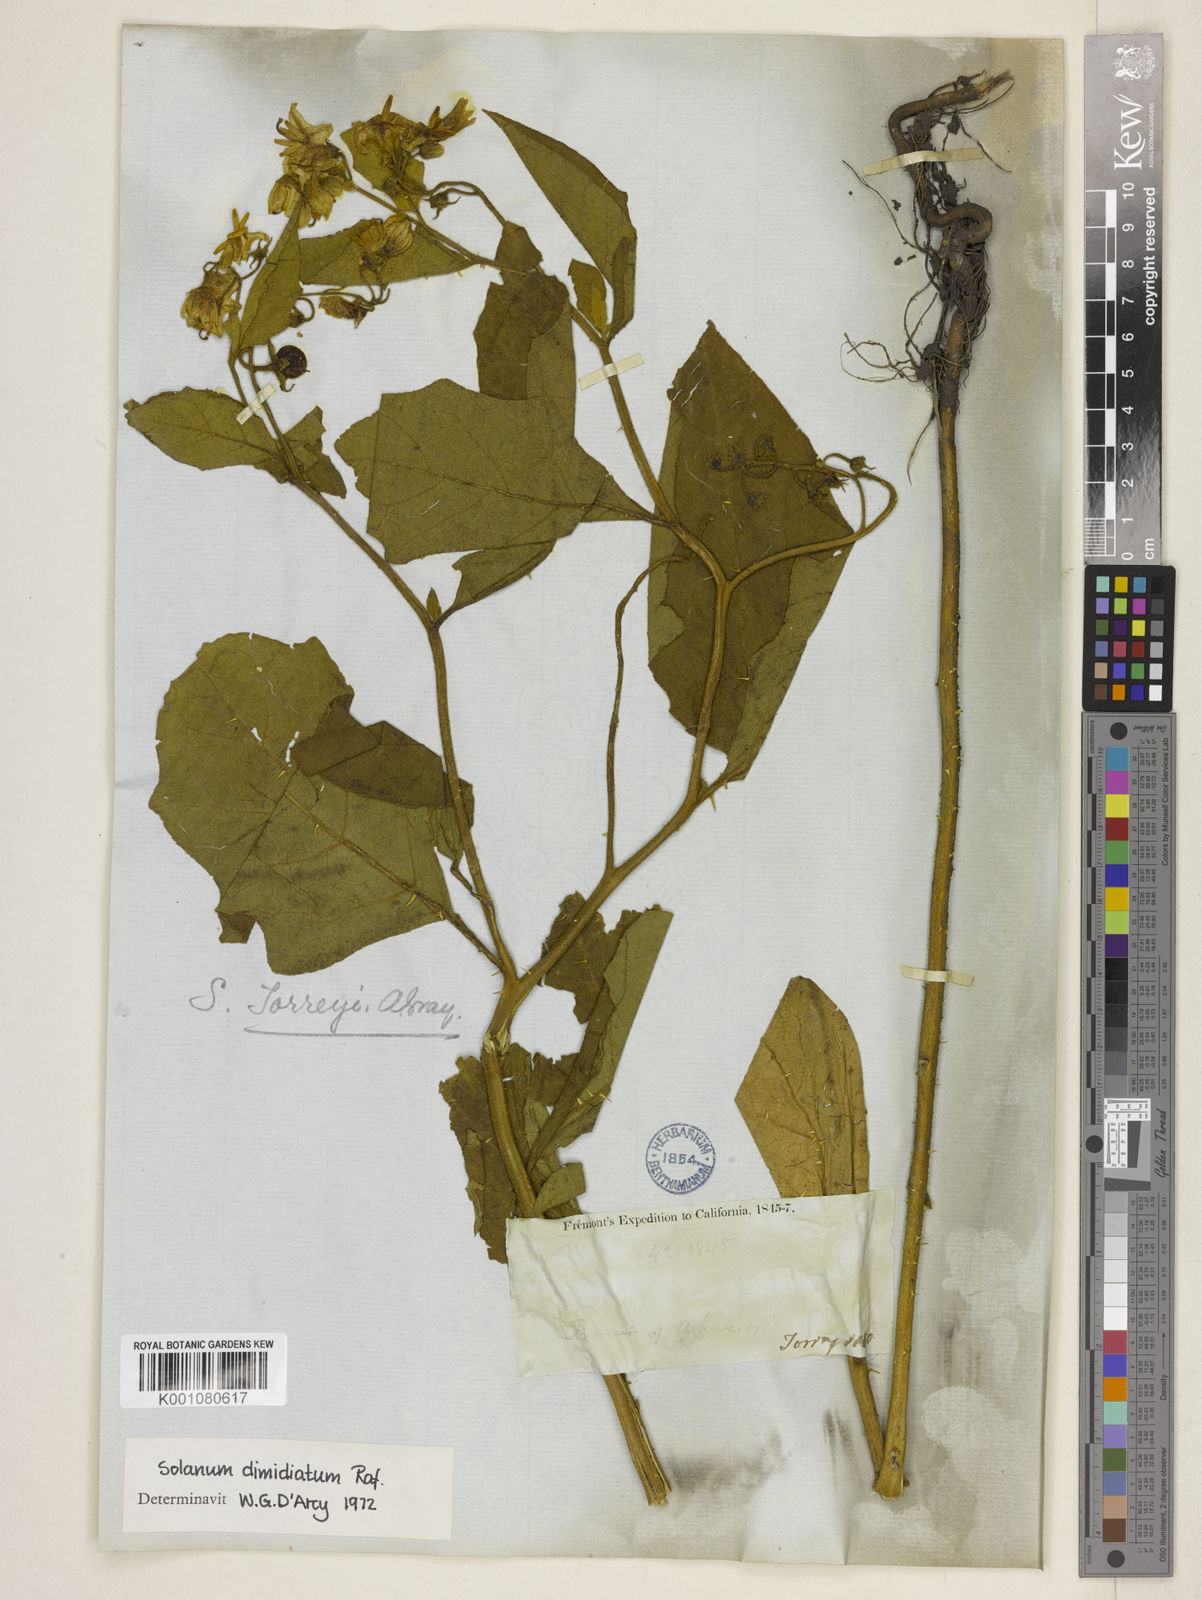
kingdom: Plantae
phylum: Tracheophyta
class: Magnoliopsida
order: Solanales
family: Solanaceae
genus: Solanum
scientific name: Solanum dimidiatum
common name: Carolina horse-nettle
